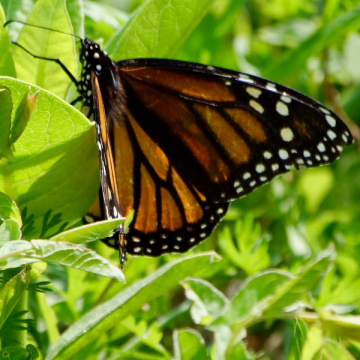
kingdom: Animalia
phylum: Arthropoda
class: Insecta
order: Lepidoptera
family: Nymphalidae
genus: Danaus
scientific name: Danaus plexippus
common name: Monarch
